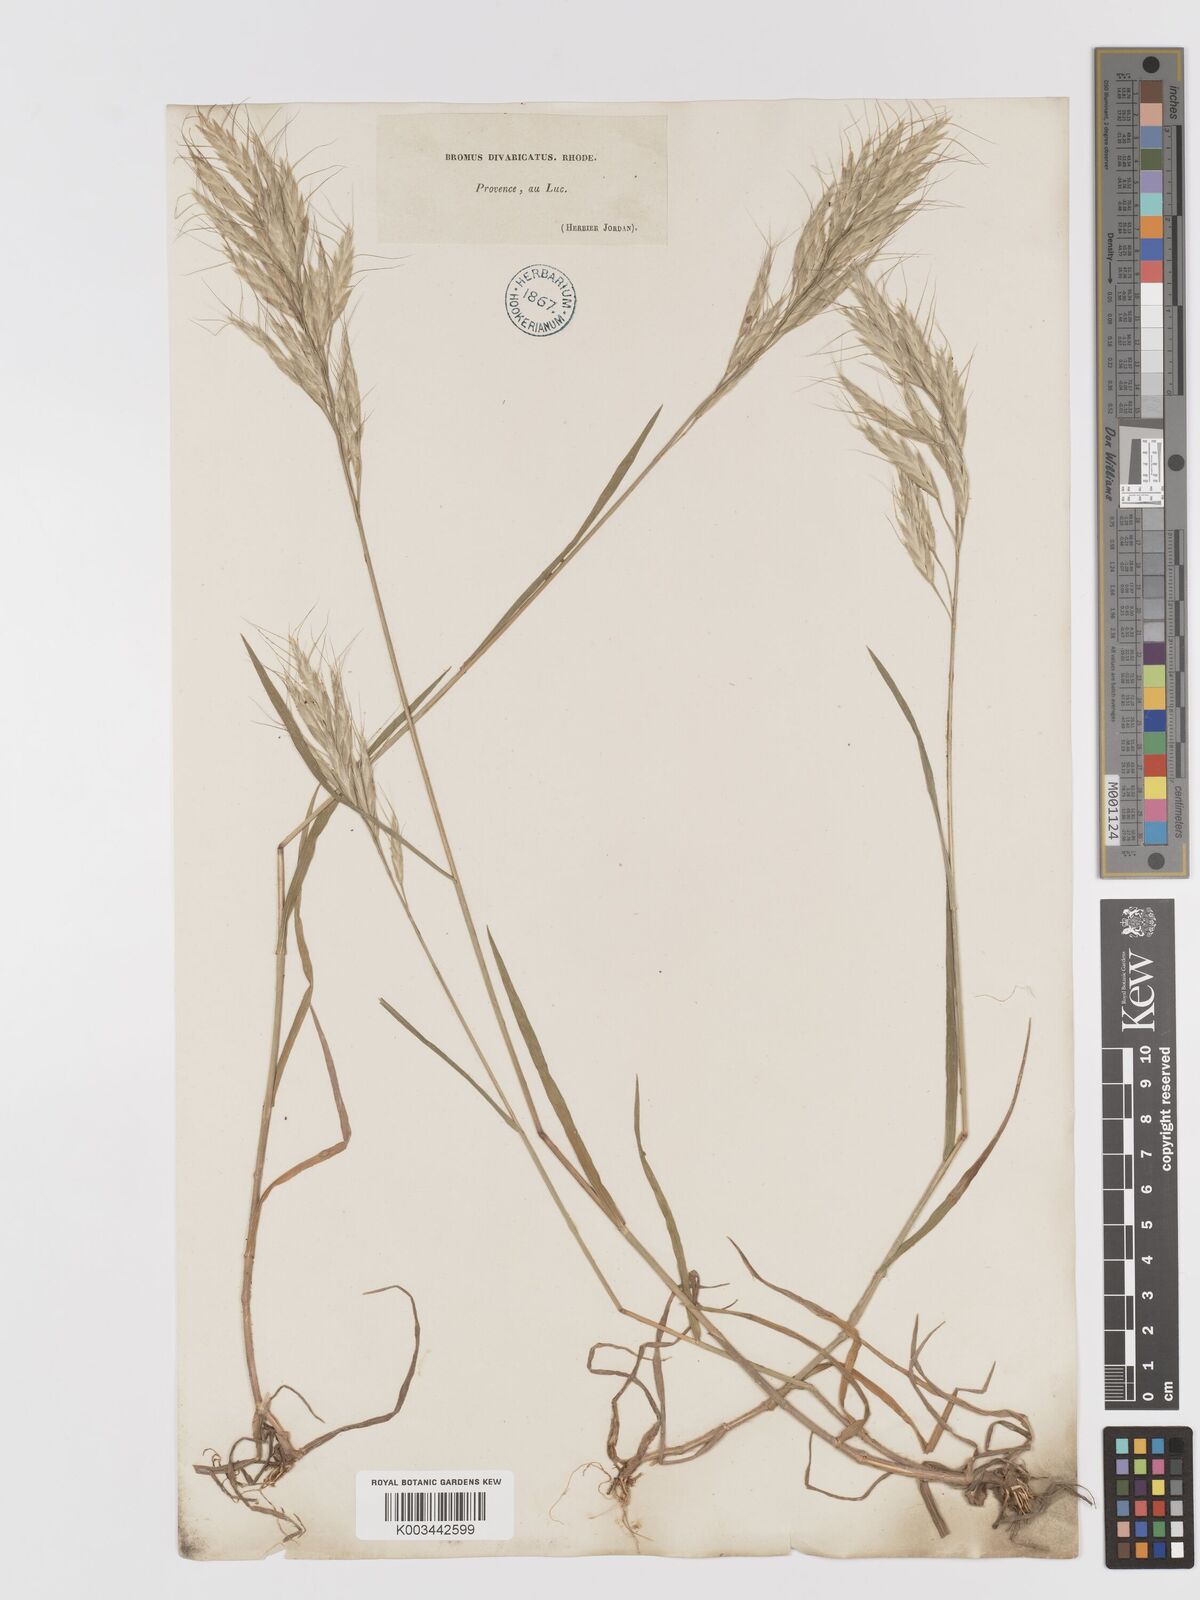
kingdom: Plantae
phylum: Tracheophyta
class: Liliopsida
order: Poales
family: Poaceae
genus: Bromus
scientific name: Bromus lanceolatus
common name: Mediterranean brome
